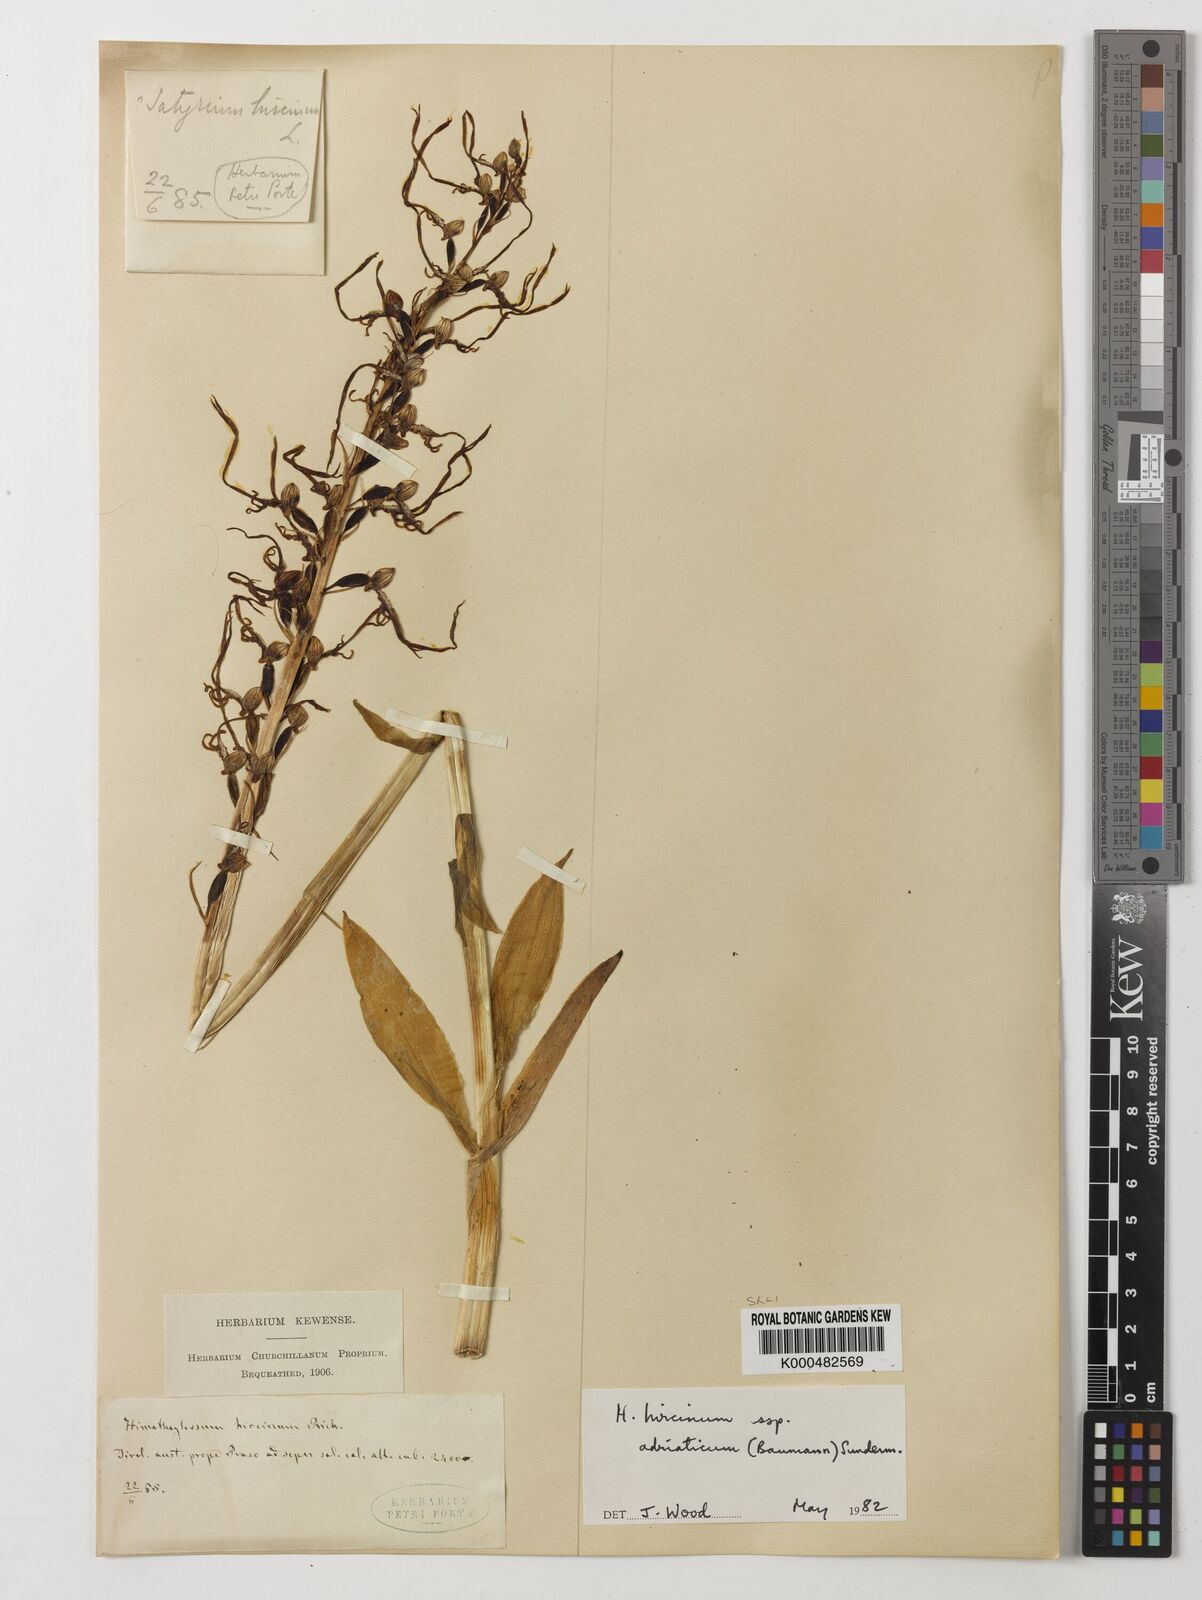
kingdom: Plantae
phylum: Tracheophyta
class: Liliopsida
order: Asparagales
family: Orchidaceae
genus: Himantoglossum
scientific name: Himantoglossum adriaticum
